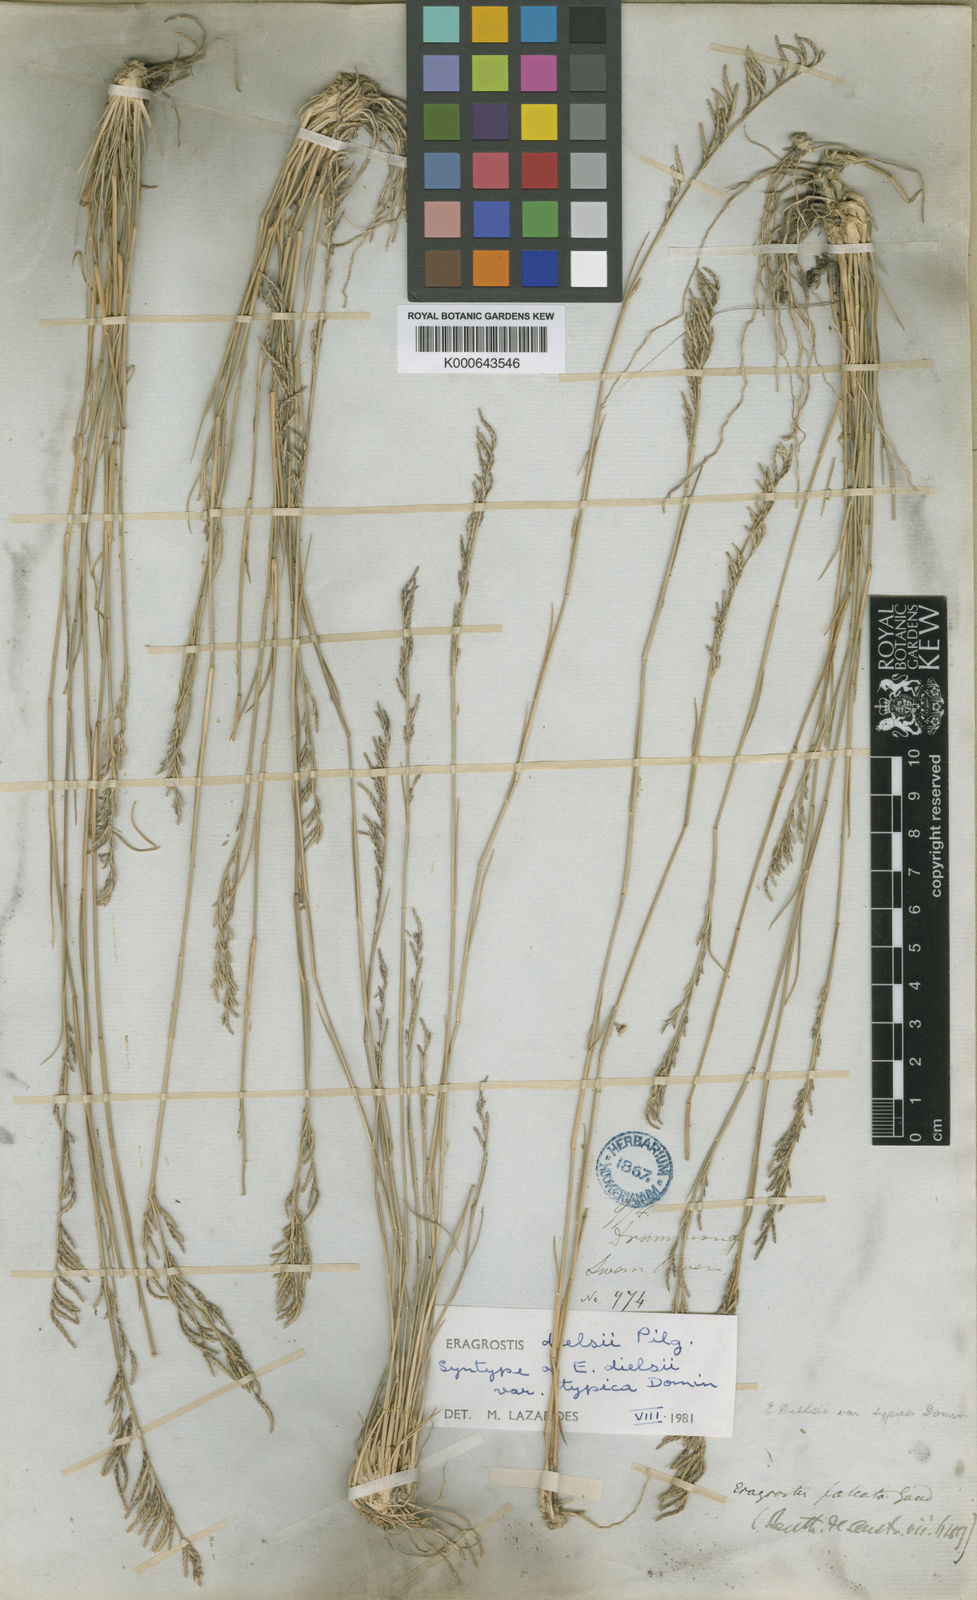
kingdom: Plantae
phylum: Tracheophyta
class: Liliopsida
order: Poales
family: Poaceae
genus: Eragrostis
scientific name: Eragrostis
